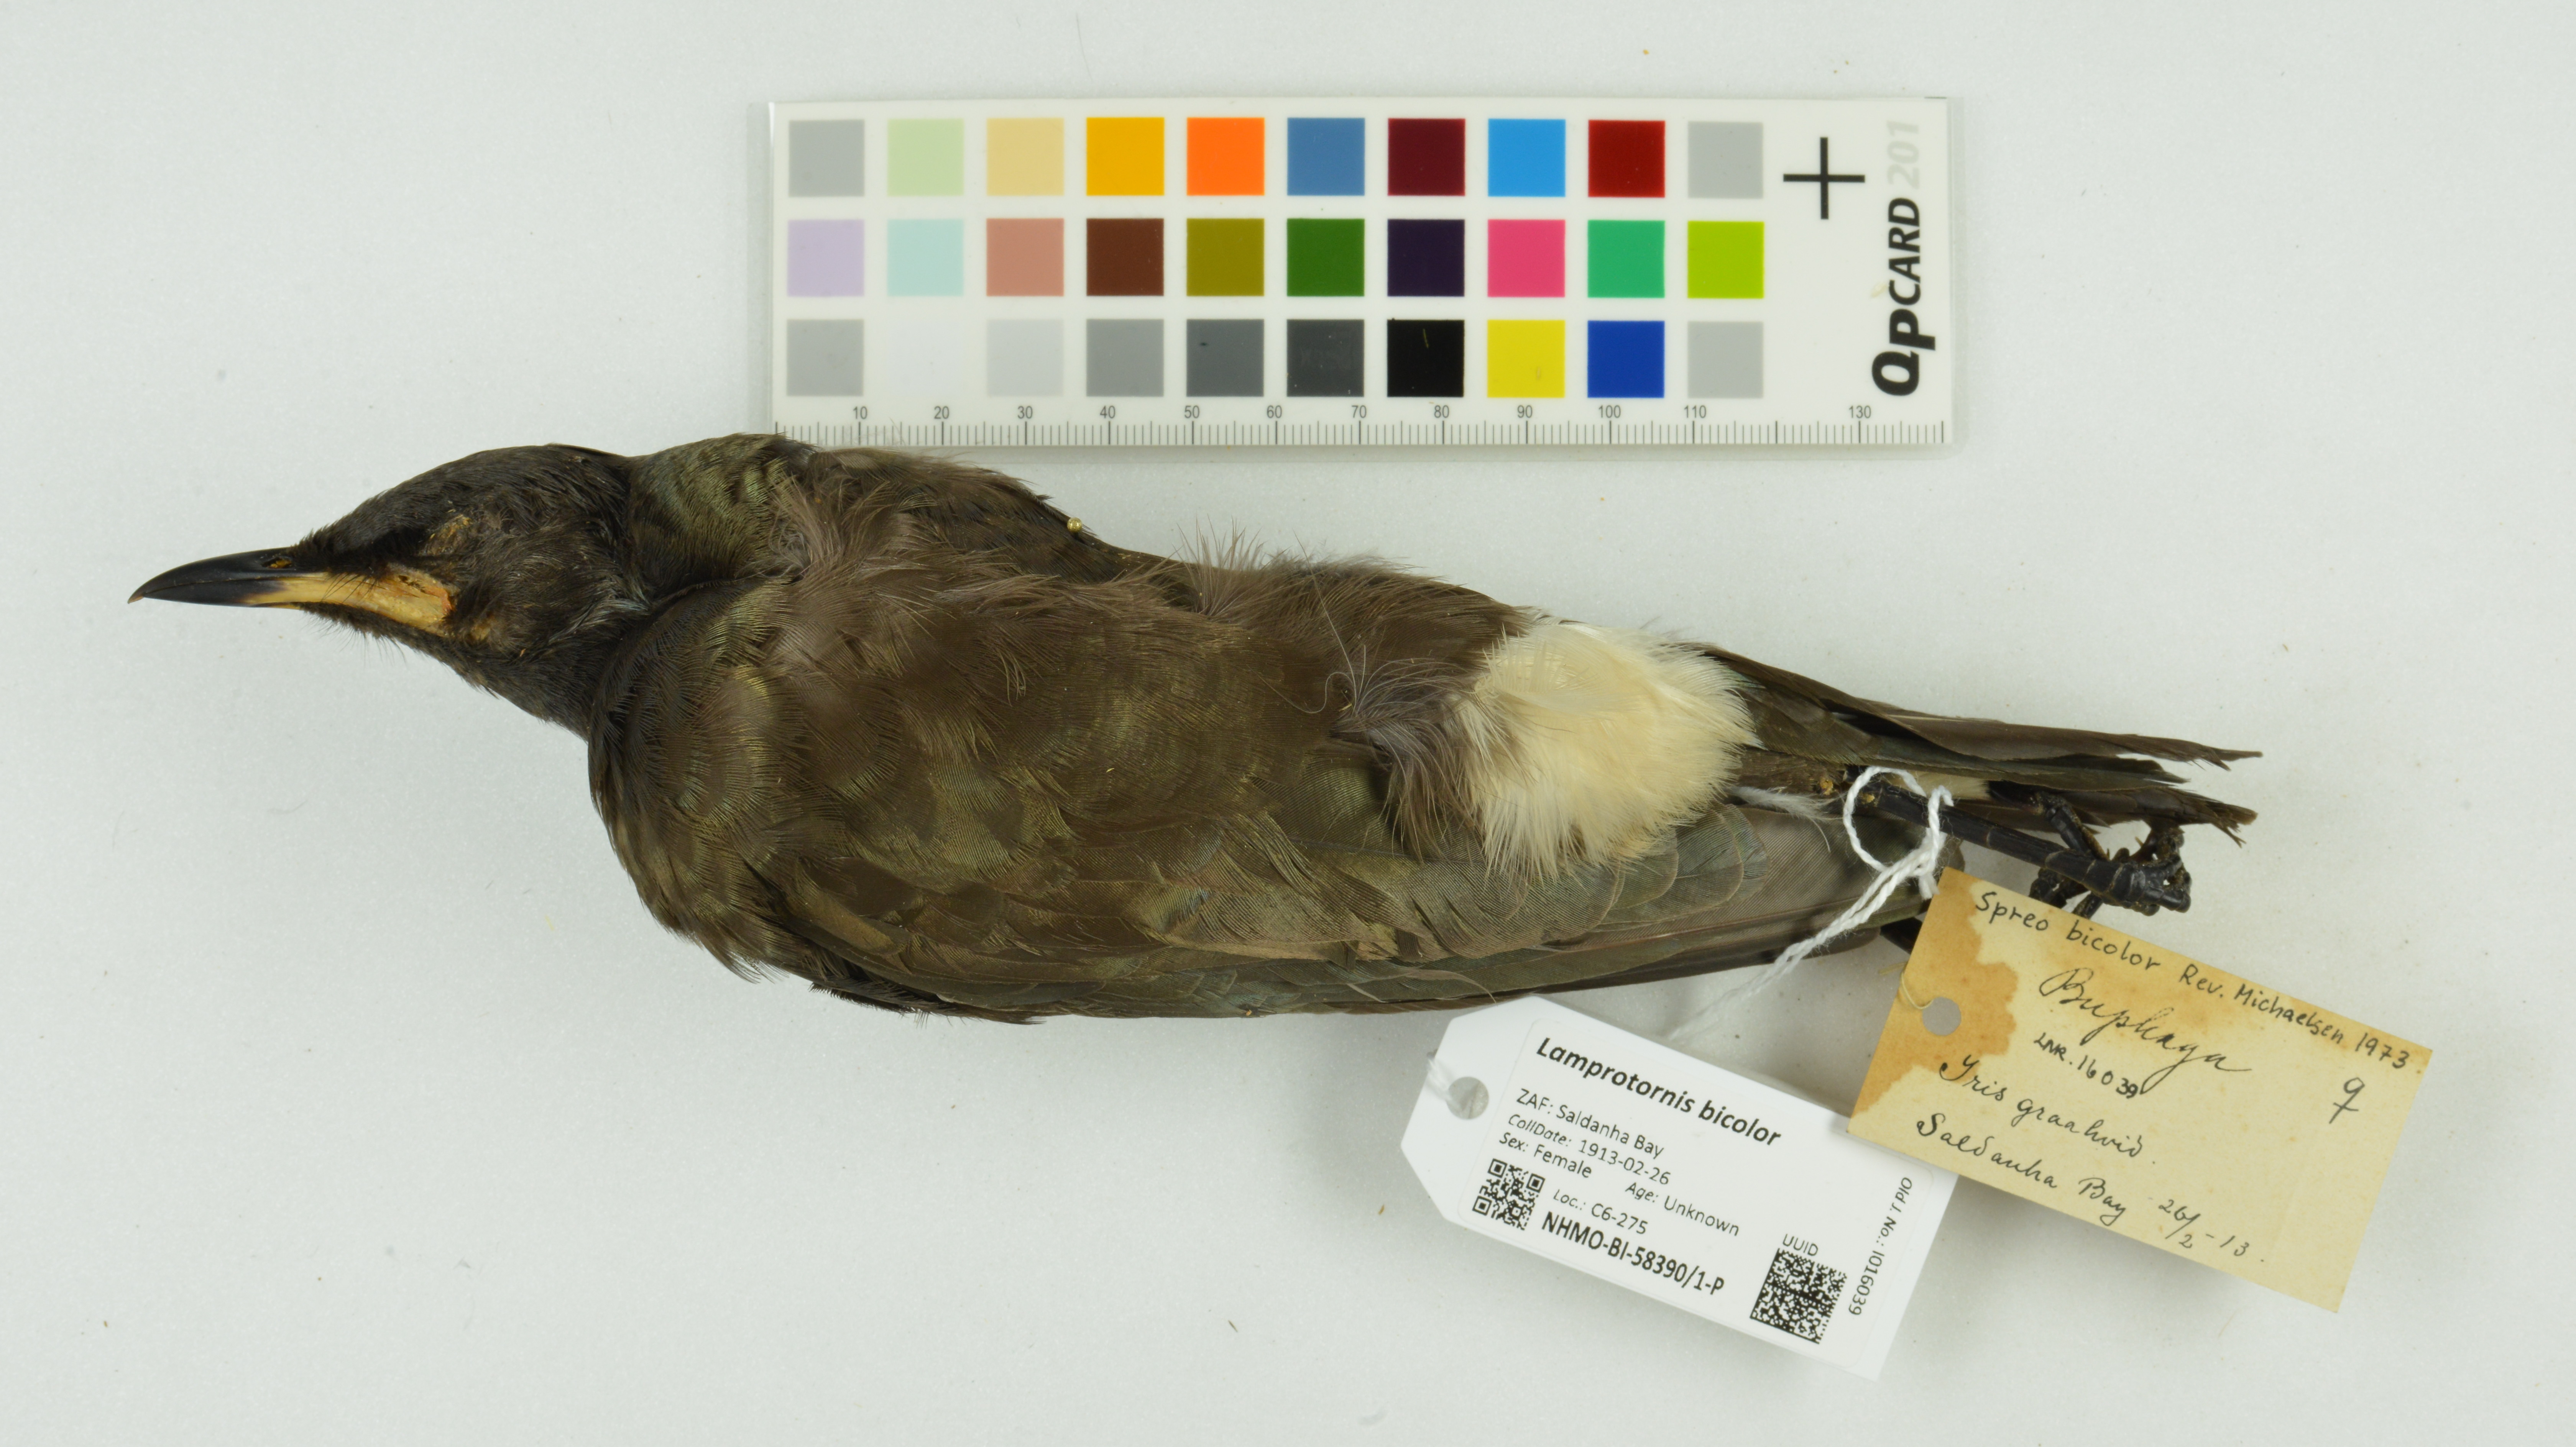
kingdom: Animalia
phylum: Chordata
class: Aves
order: Passeriformes
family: Sturnidae
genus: Lamprotornis
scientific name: Lamprotornis bicolor
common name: Pied starling
